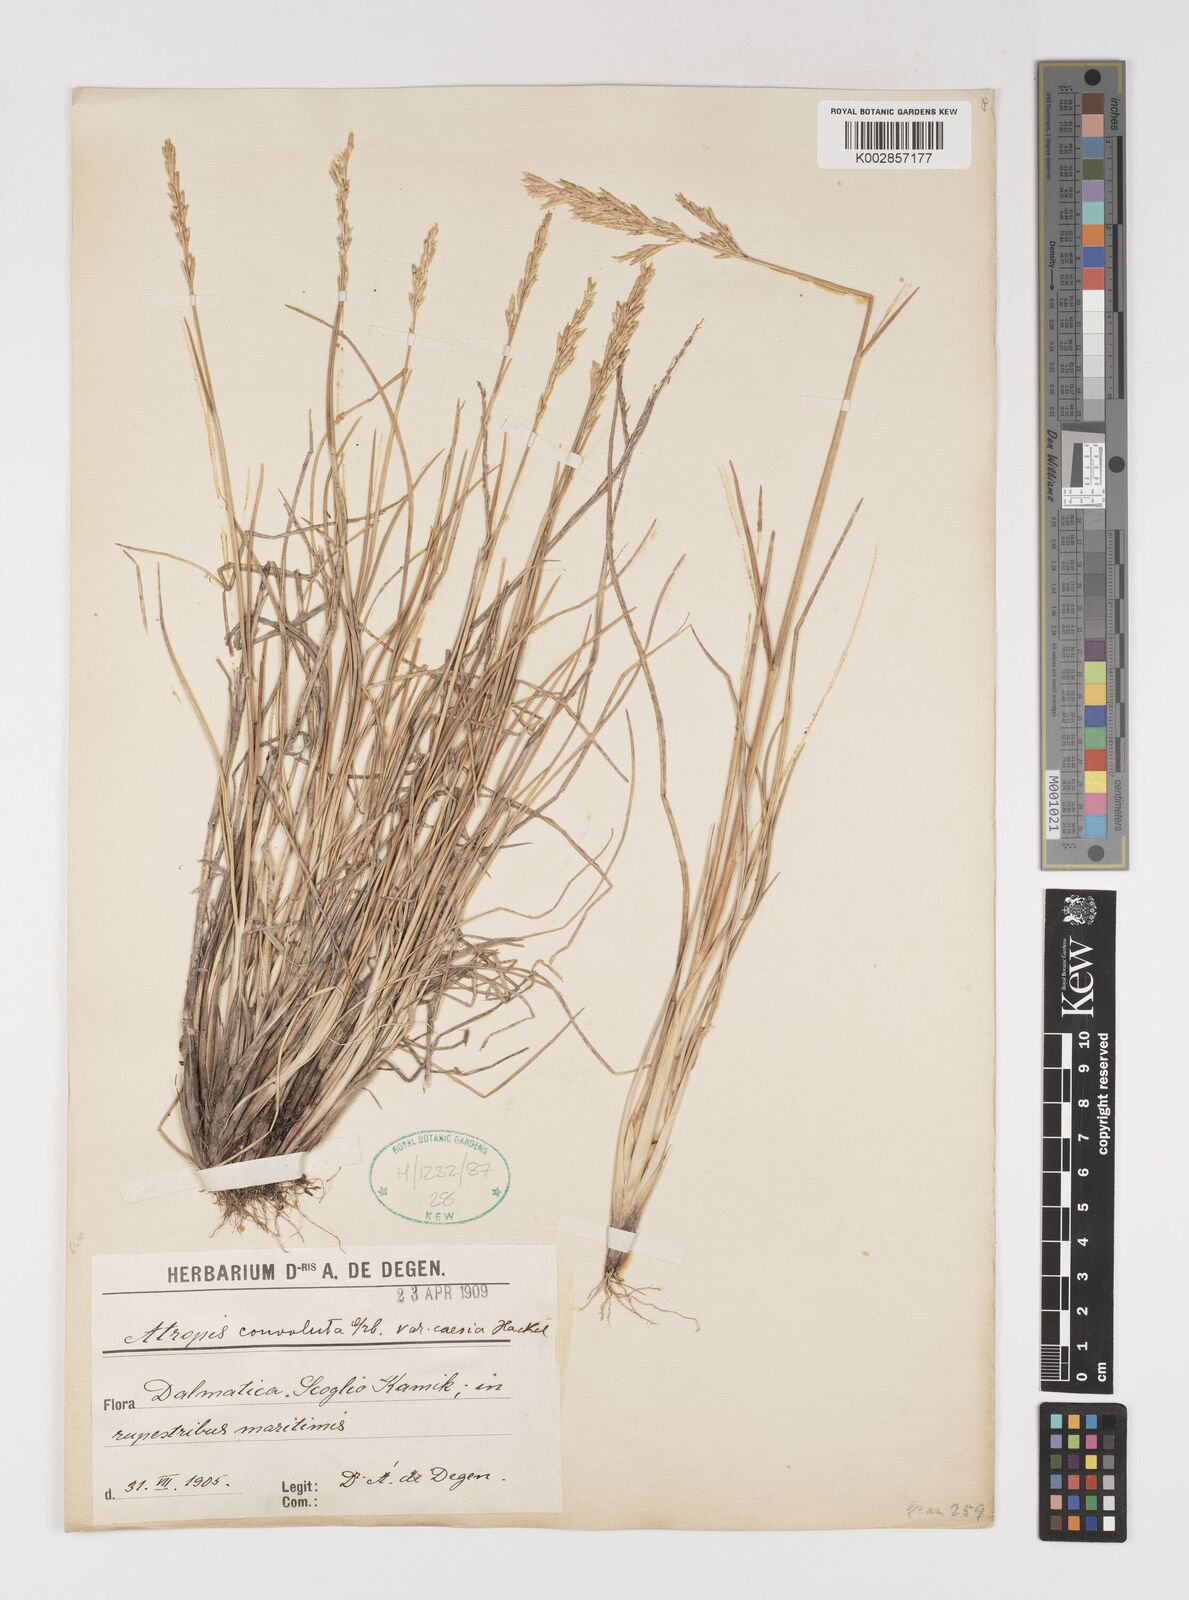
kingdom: Plantae
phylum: Tracheophyta
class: Liliopsida
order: Poales
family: Poaceae
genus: Puccinellia
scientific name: Puccinellia convoluta
